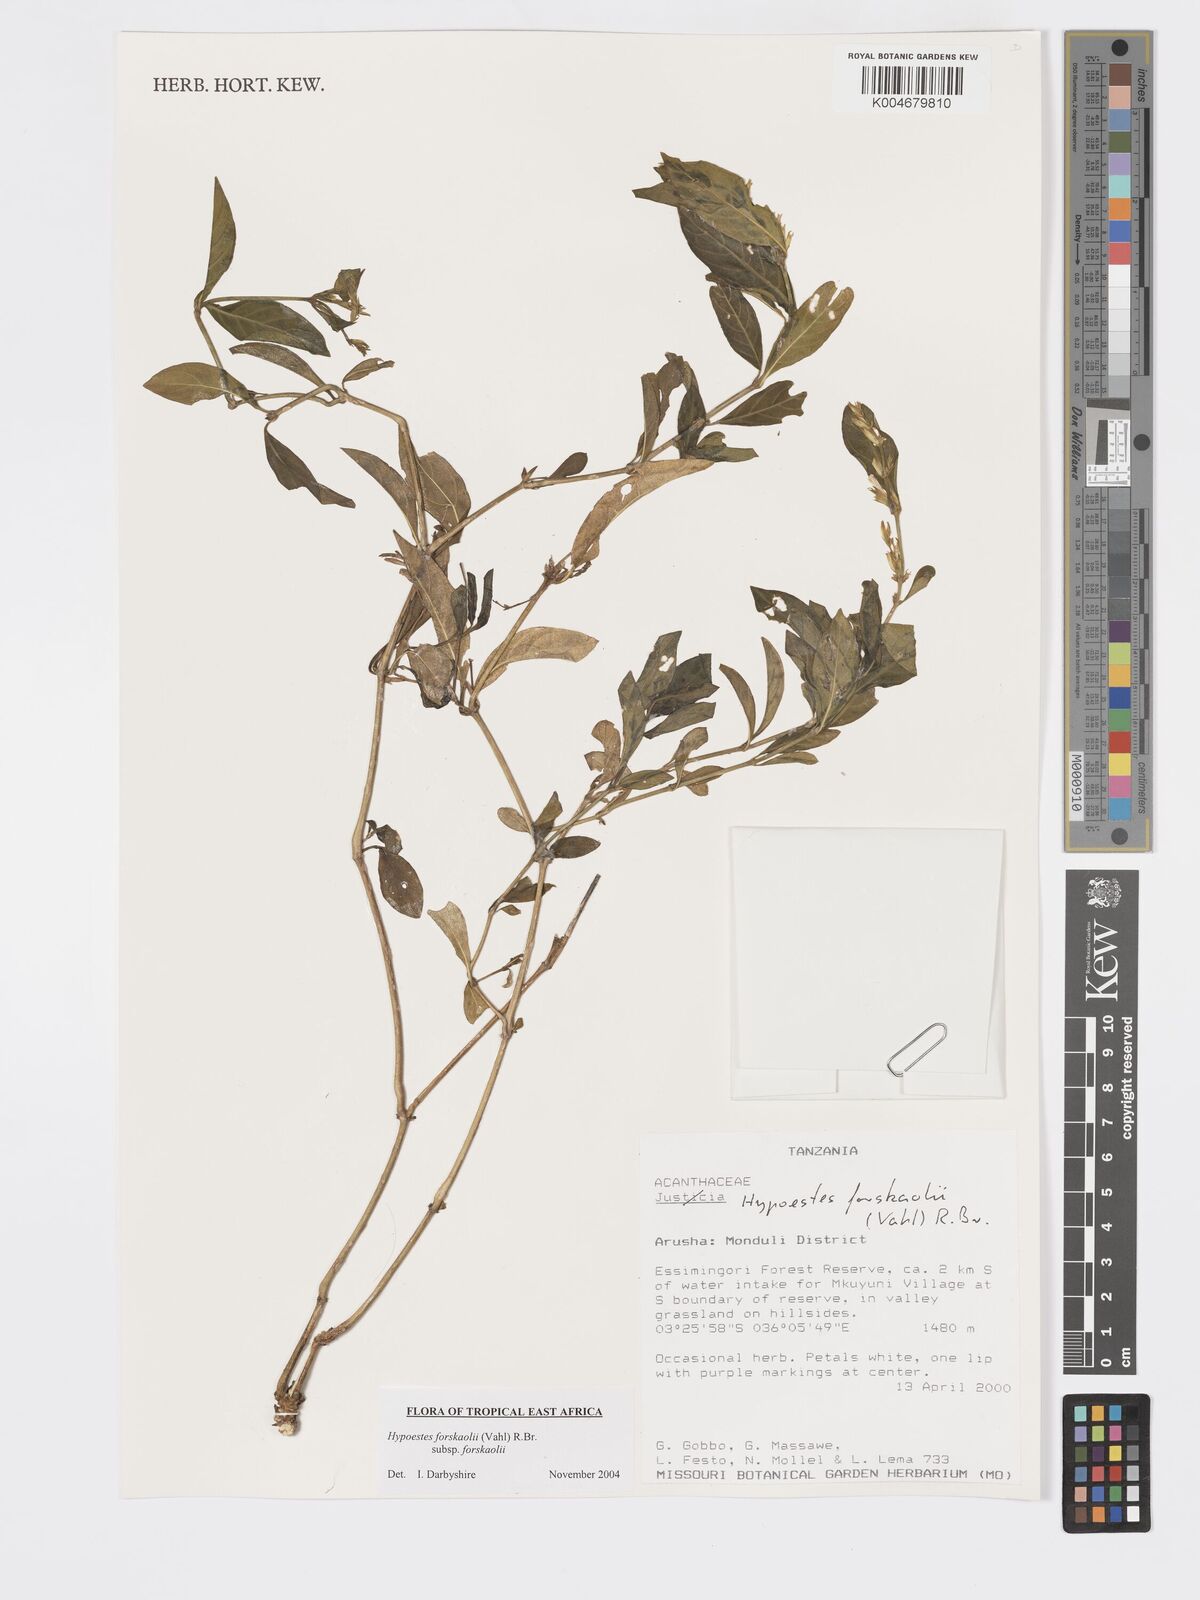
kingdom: Plantae
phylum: Tracheophyta
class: Magnoliopsida
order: Lamiales
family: Acanthaceae
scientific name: Acanthaceae
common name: Acanthaceae
